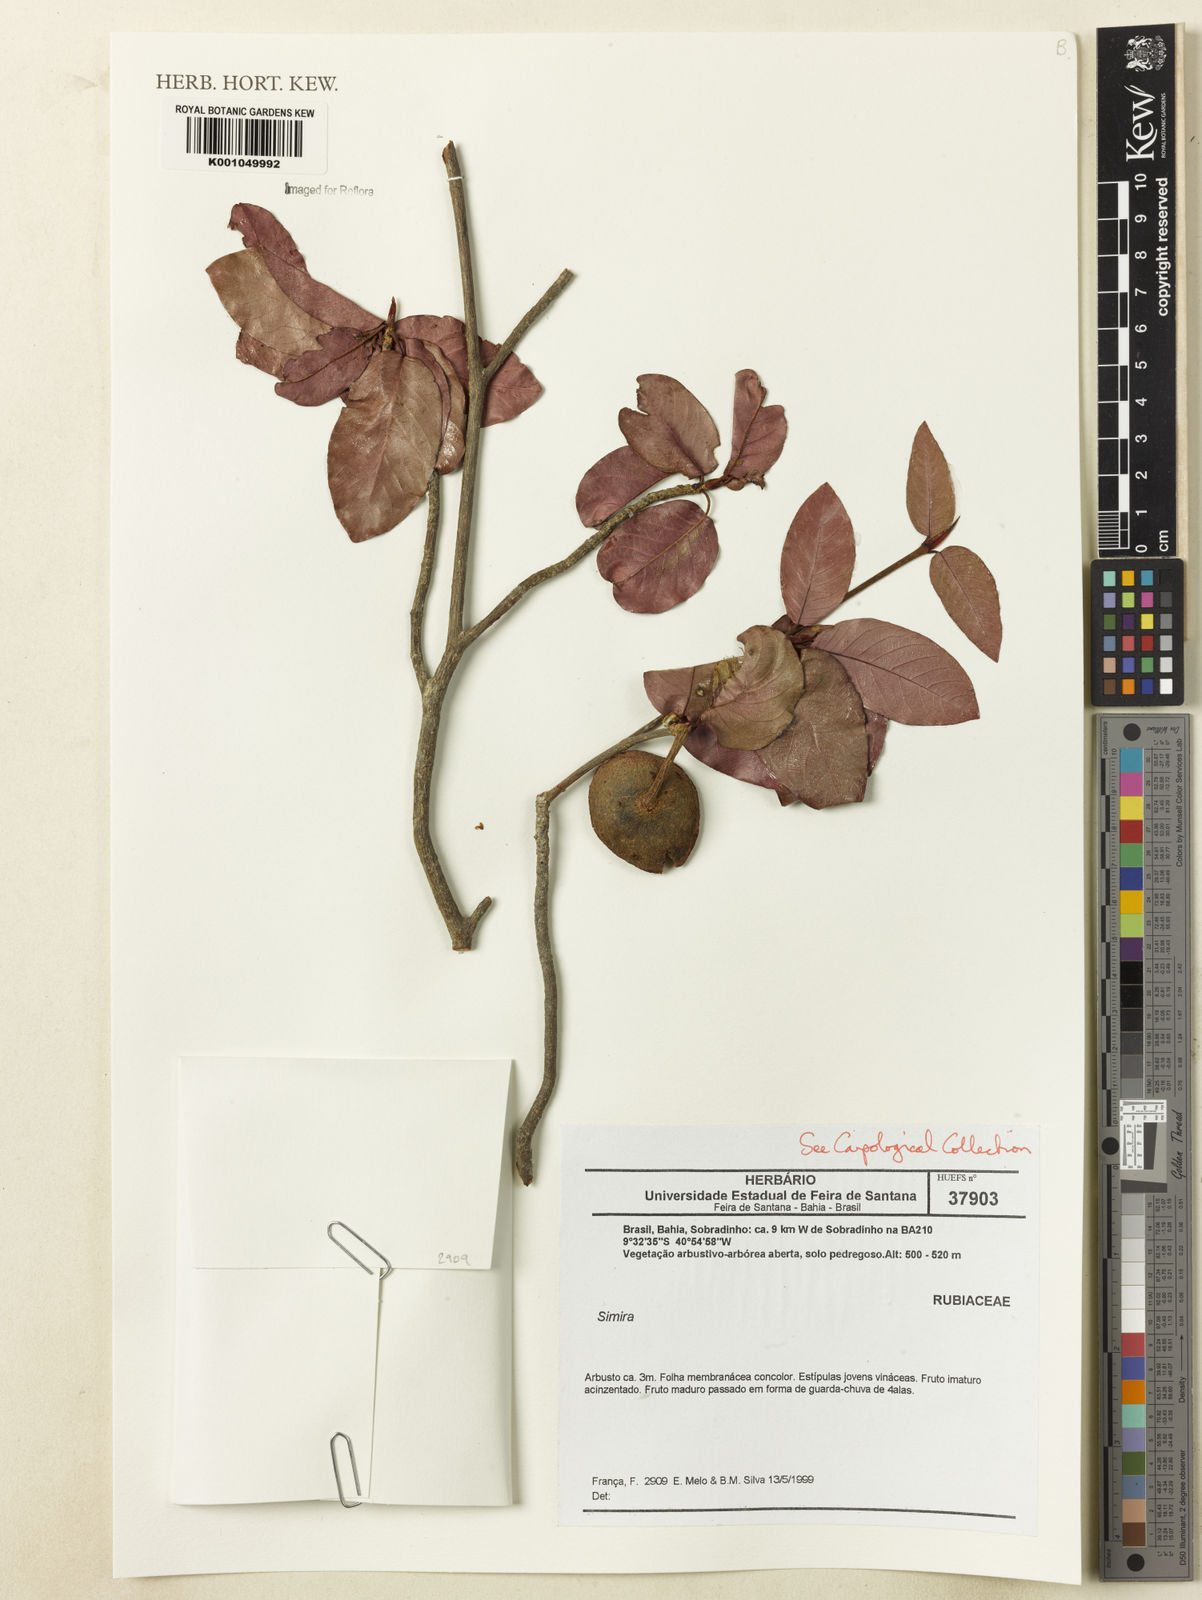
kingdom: Plantae
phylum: Tracheophyta
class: Magnoliopsida
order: Gentianales
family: Rubiaceae
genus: Simira
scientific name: Simira
